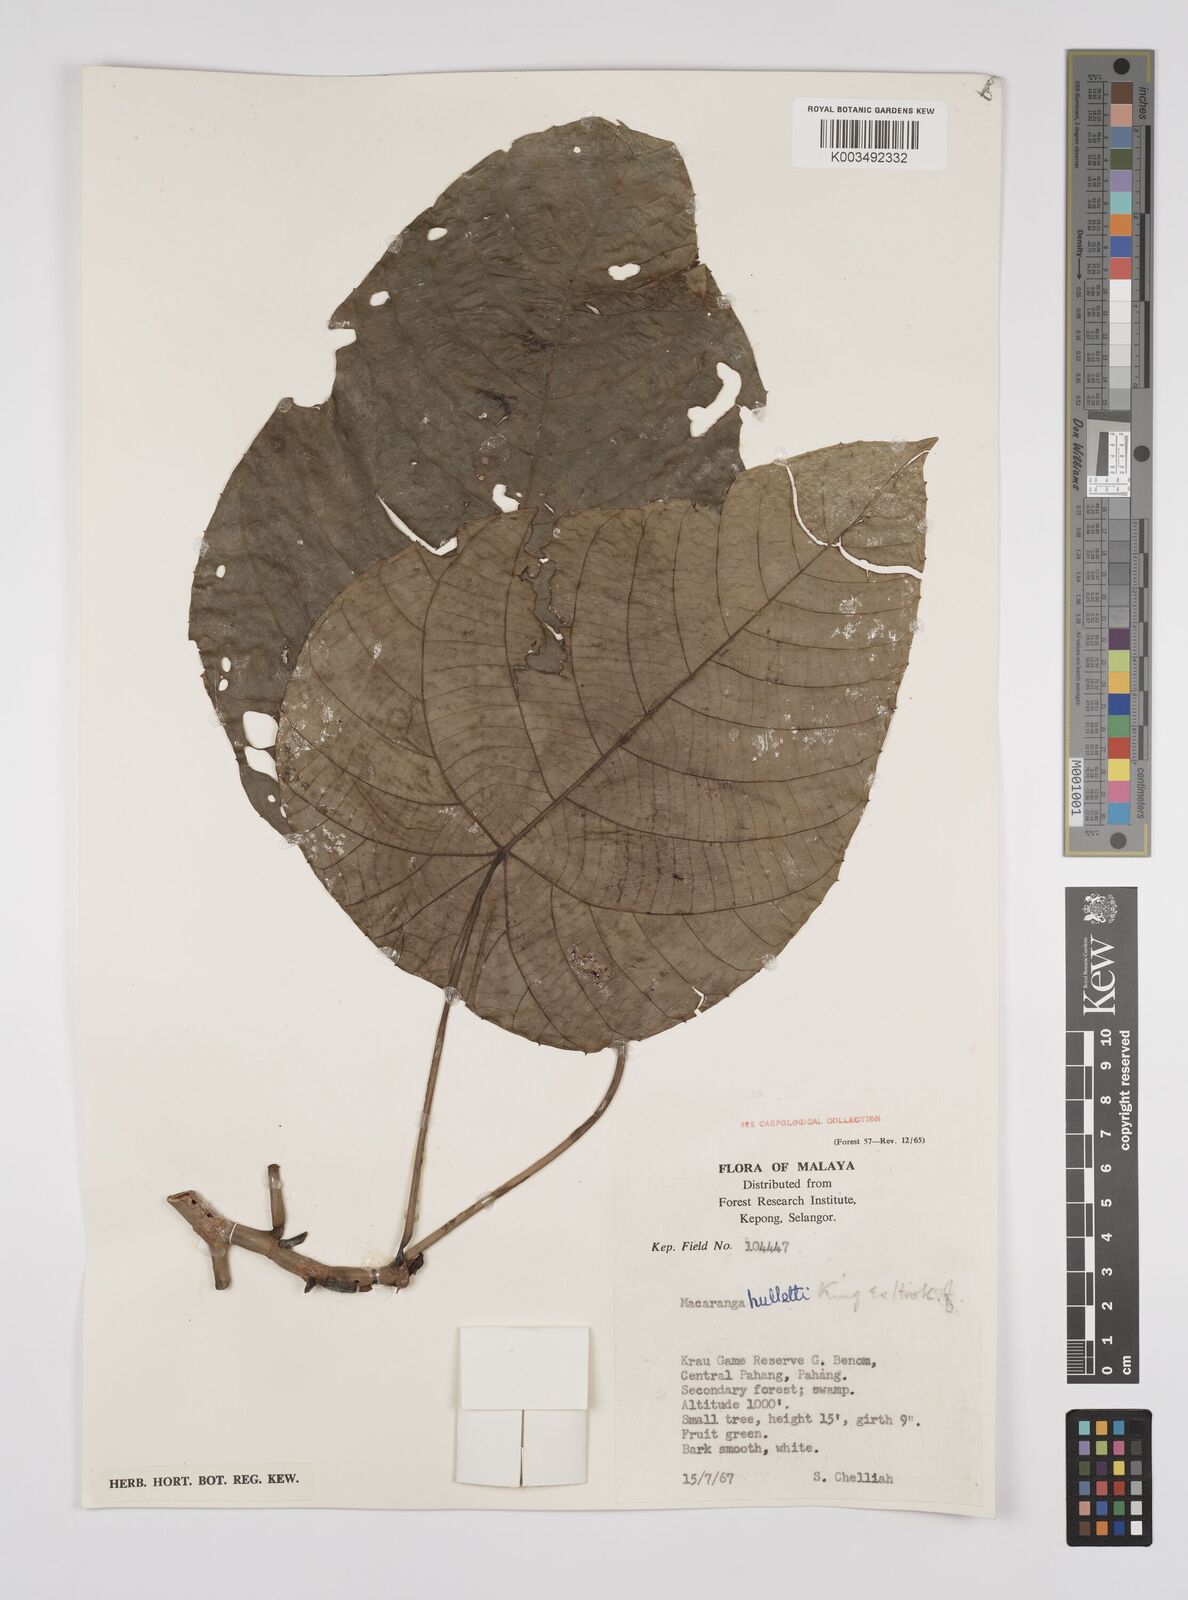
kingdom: Plantae
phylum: Tracheophyta
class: Magnoliopsida
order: Malpighiales
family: Euphorbiaceae
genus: Macaranga
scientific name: Macaranga hullettii
